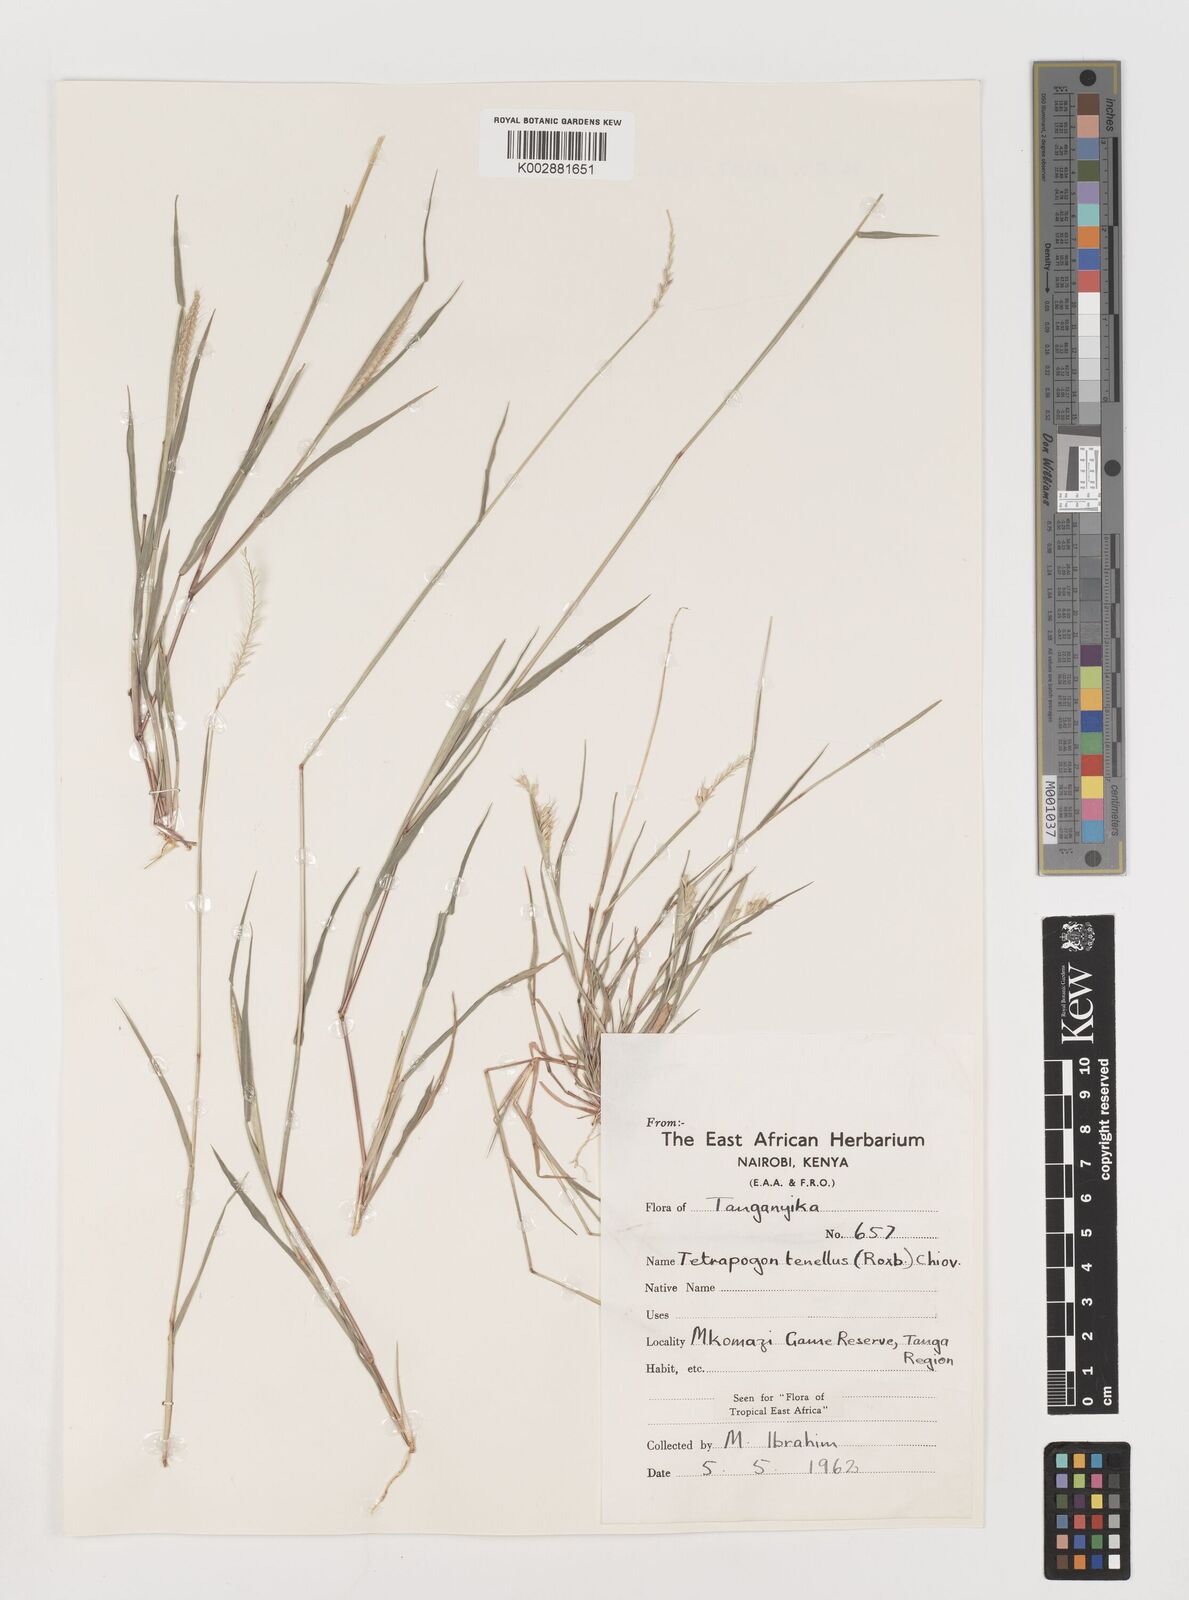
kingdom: Plantae
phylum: Tracheophyta
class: Liliopsida
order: Poales
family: Poaceae
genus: Tetrapogon
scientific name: Tetrapogon tenellus
